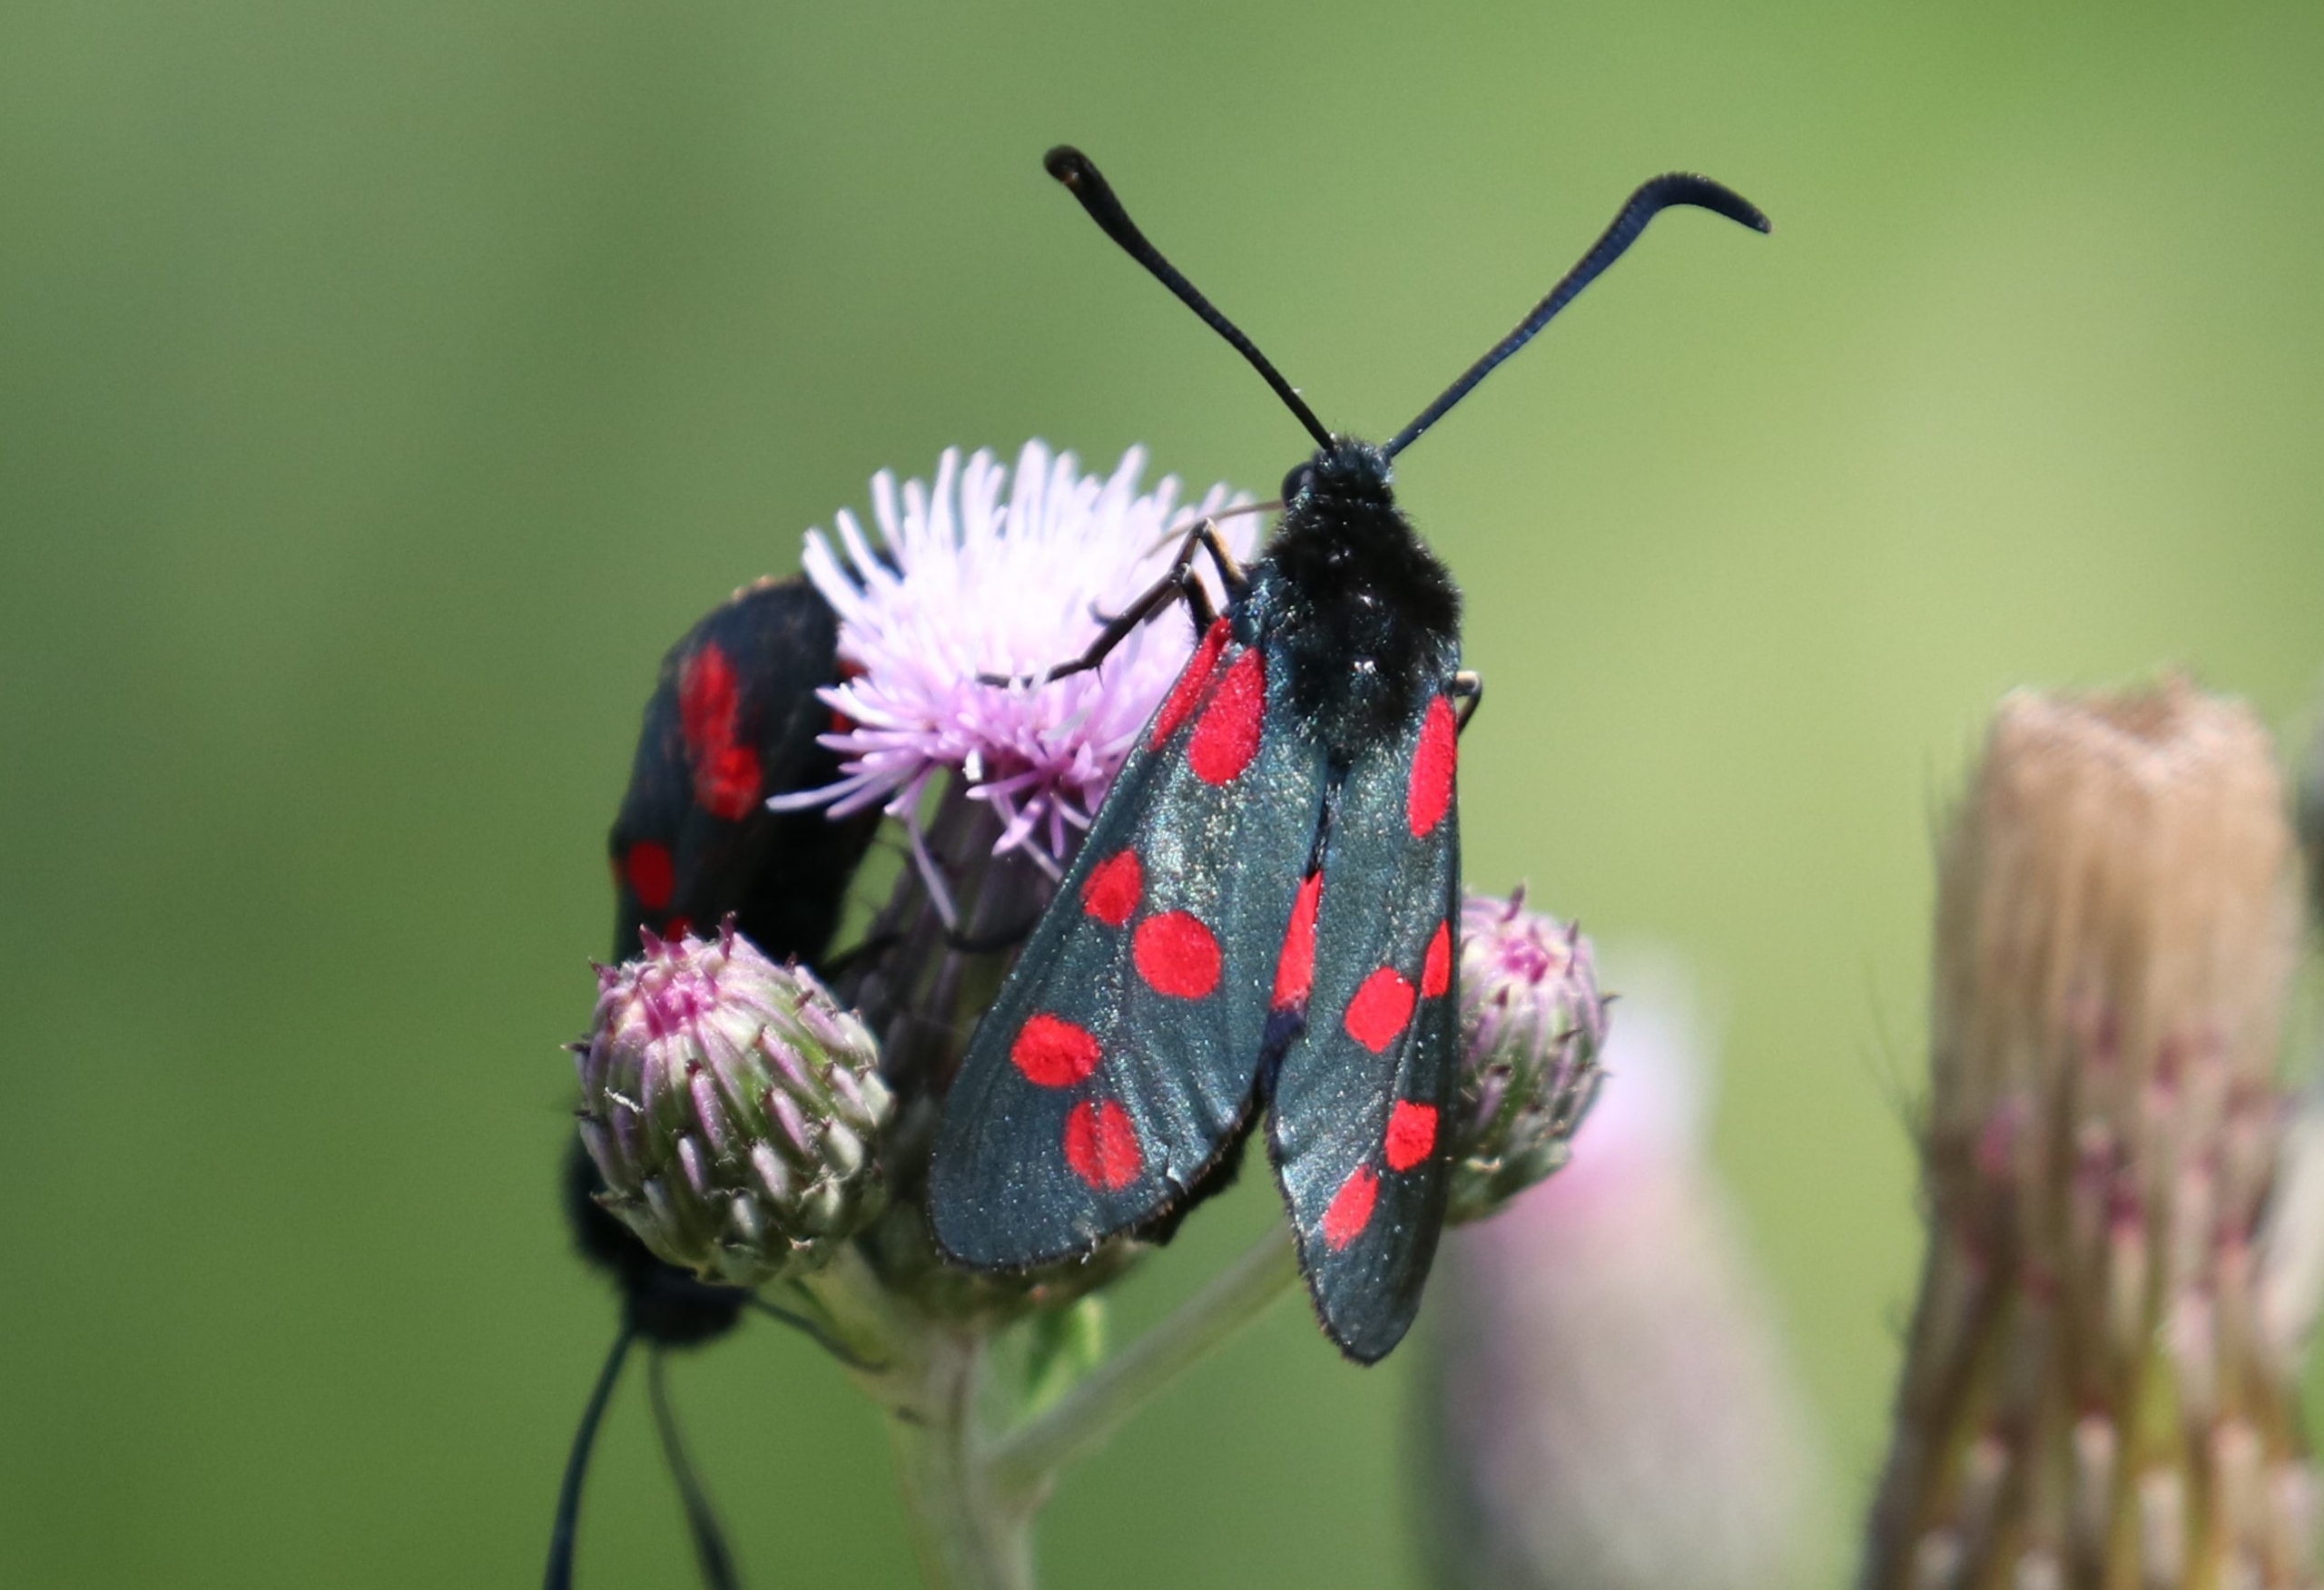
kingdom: Animalia
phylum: Arthropoda
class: Insecta
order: Lepidoptera
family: Zygaenidae
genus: Zygaena
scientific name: Zygaena filipendulae
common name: Seksplettet køllesværmer
